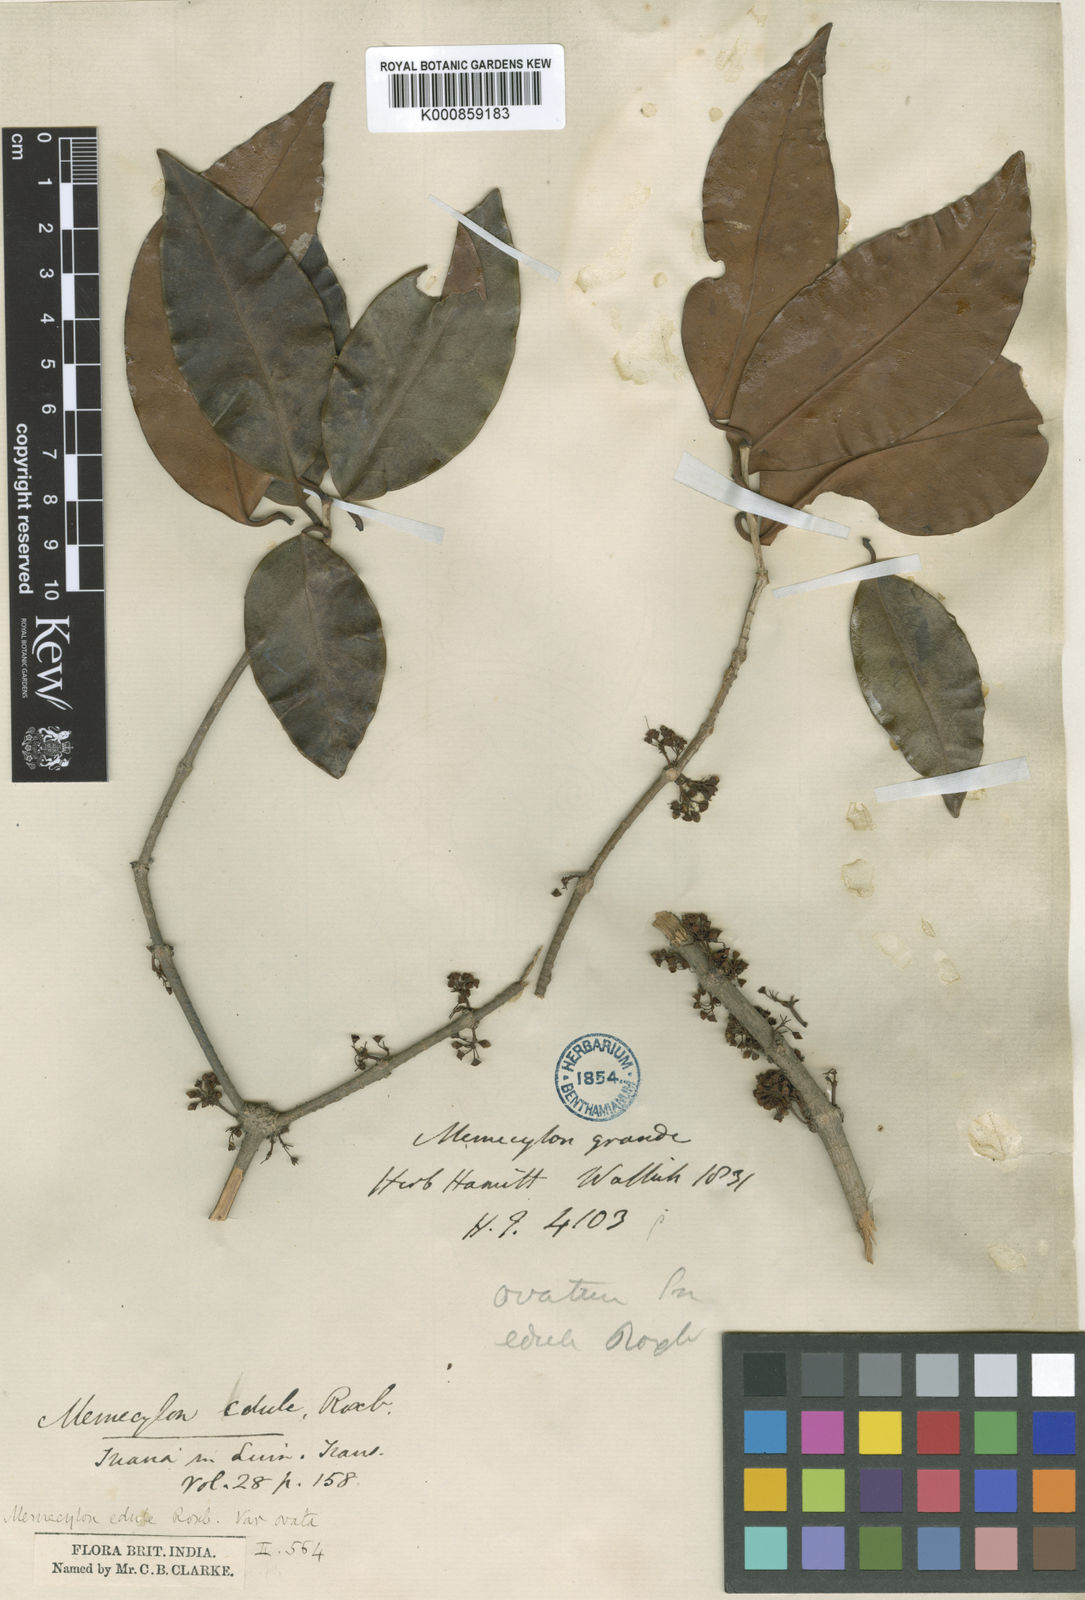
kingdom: Plantae
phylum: Tracheophyta
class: Magnoliopsida
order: Myrtales
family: Melastomataceae
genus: Memecylon
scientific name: Memecylon grande
